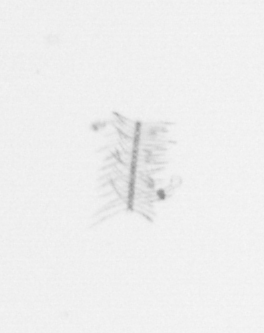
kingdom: Chromista
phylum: Ochrophyta
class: Bacillariophyceae
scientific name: Bacillariophyceae
